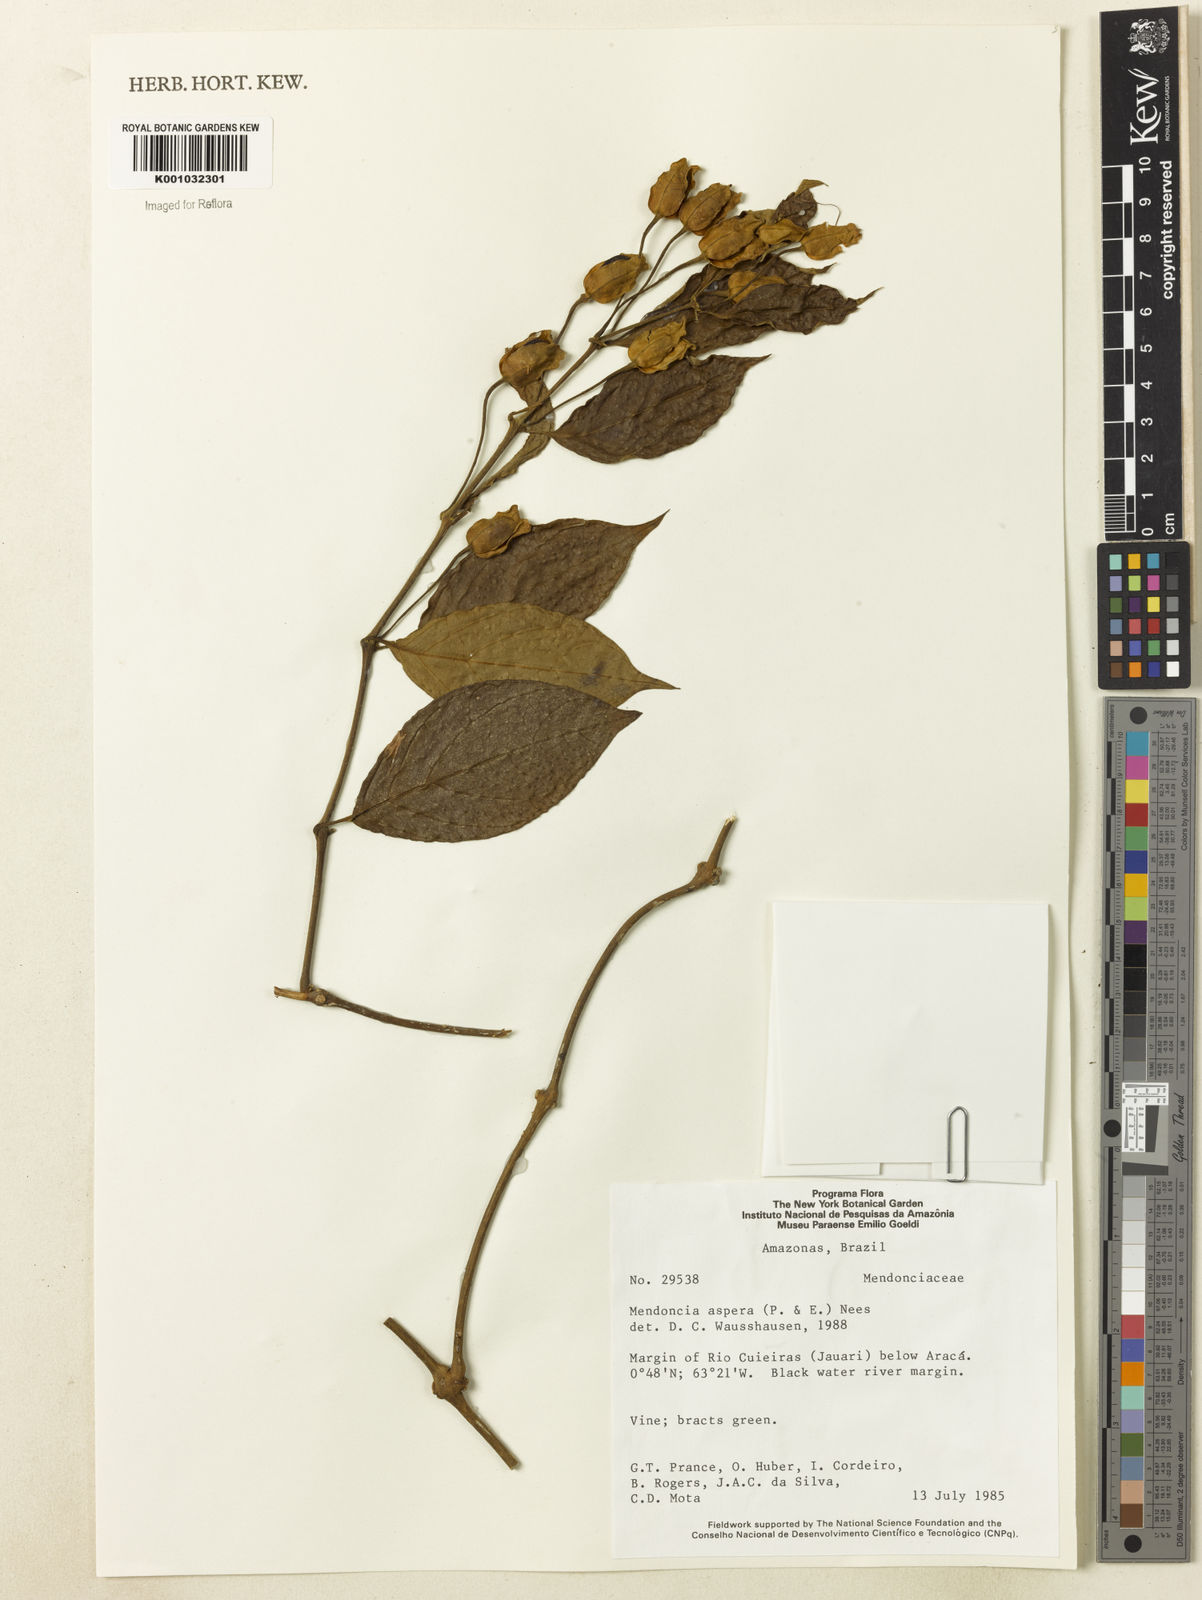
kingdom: Plantae
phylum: Tracheophyta
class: Magnoliopsida
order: Lamiales
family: Acanthaceae
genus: Mendoncia
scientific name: Mendoncia
